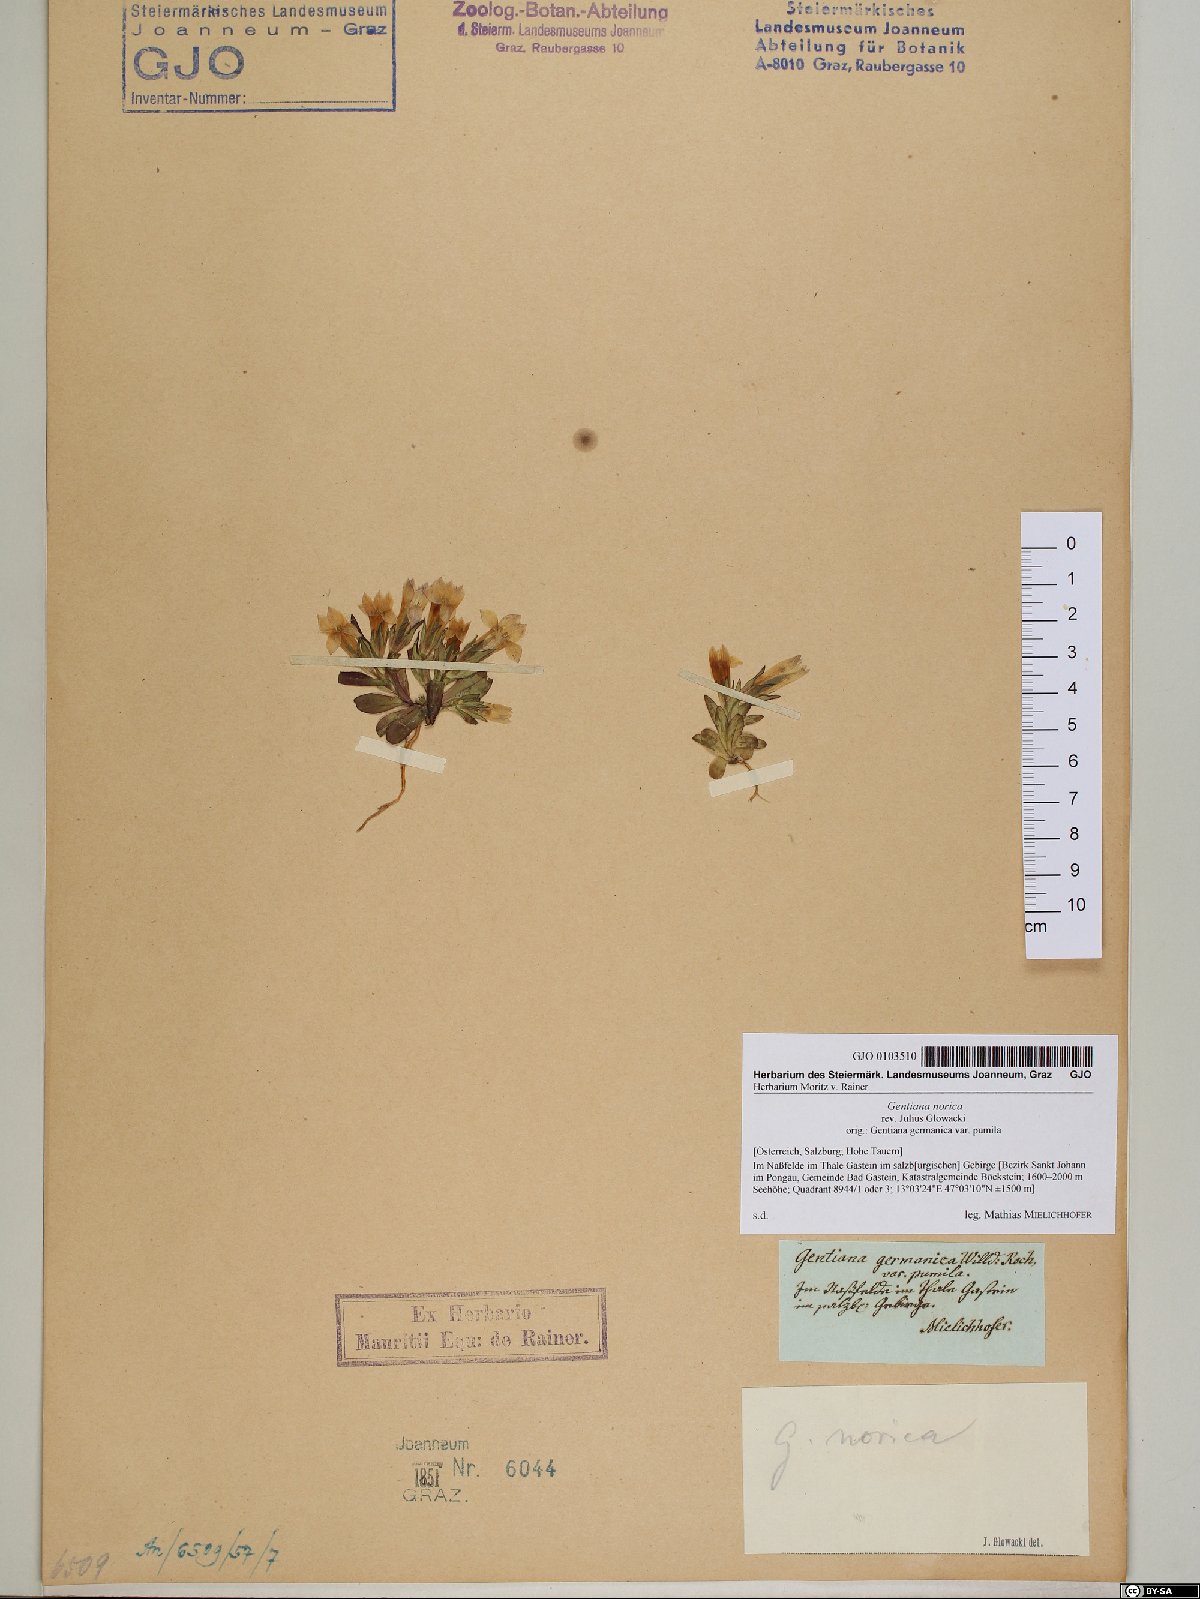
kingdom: Plantae
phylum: Tracheophyta
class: Magnoliopsida
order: Gentianales
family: Gentianaceae
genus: Gentianella
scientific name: Gentianella obtusifolia
